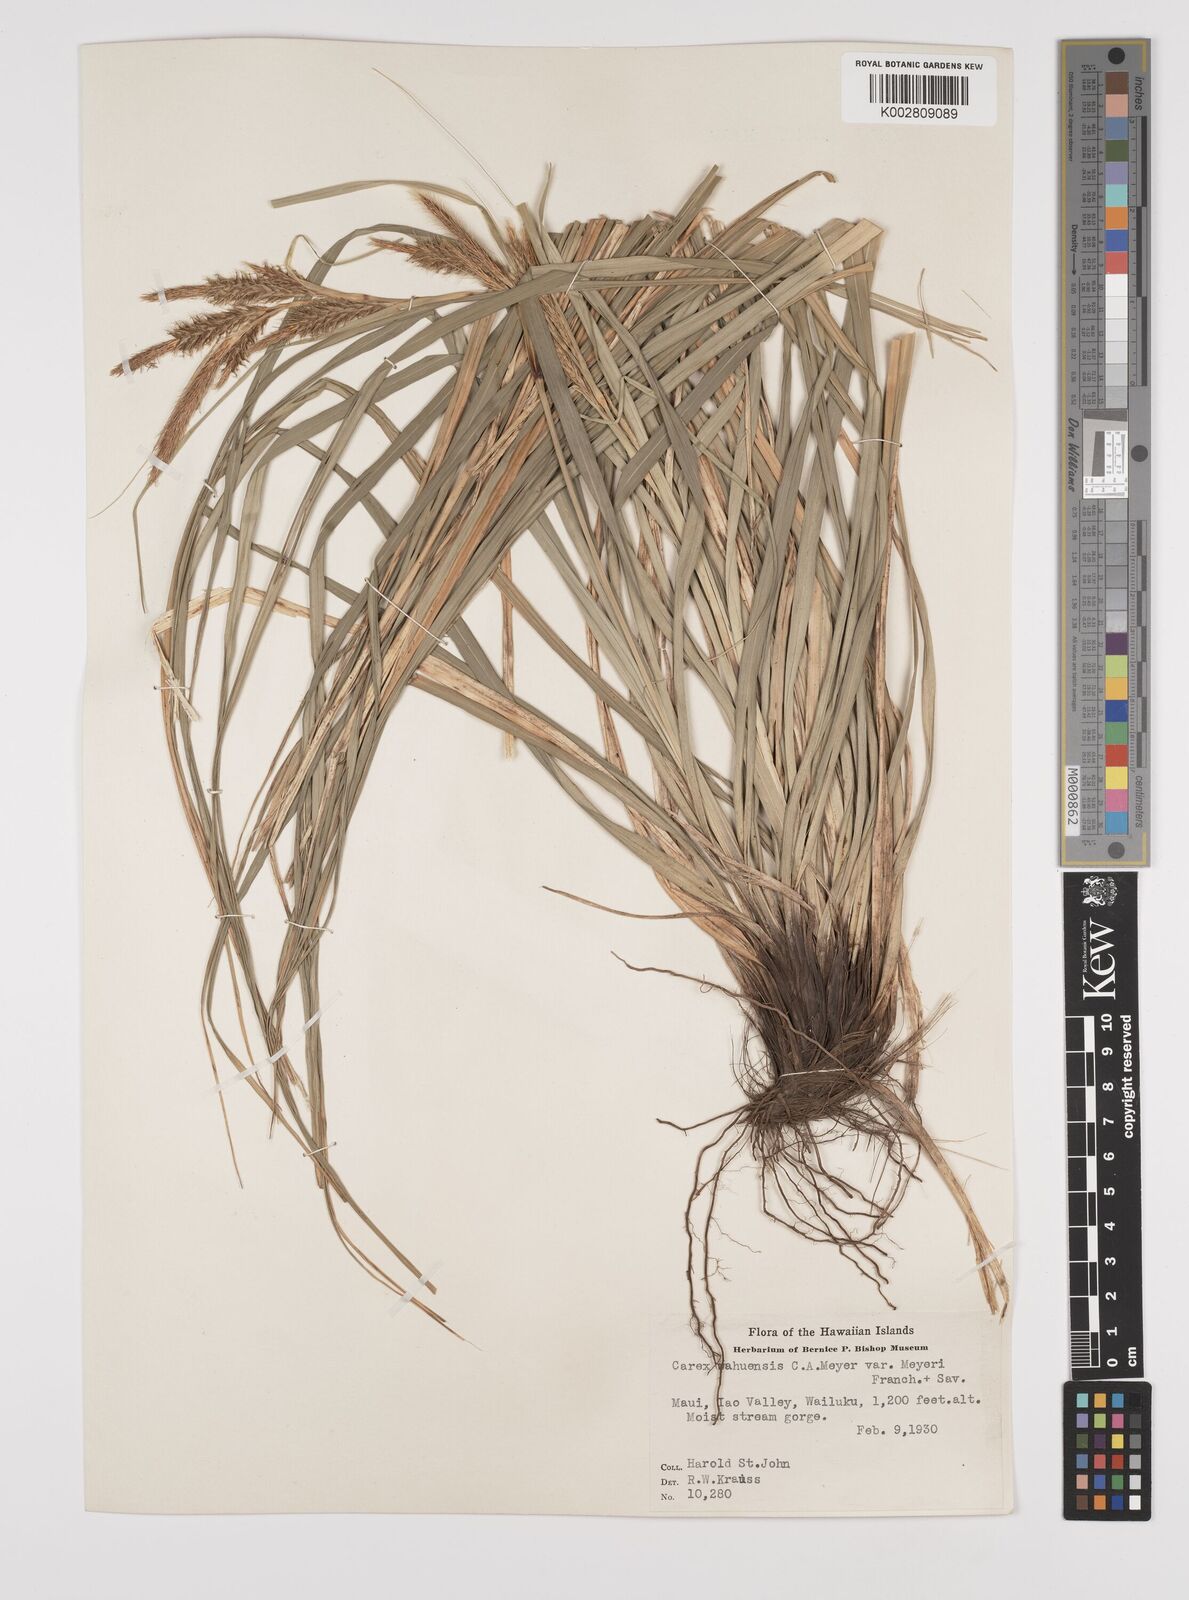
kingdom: Plantae
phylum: Tracheophyta
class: Liliopsida
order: Poales
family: Cyperaceae
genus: Carex
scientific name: Carex wahuensis
